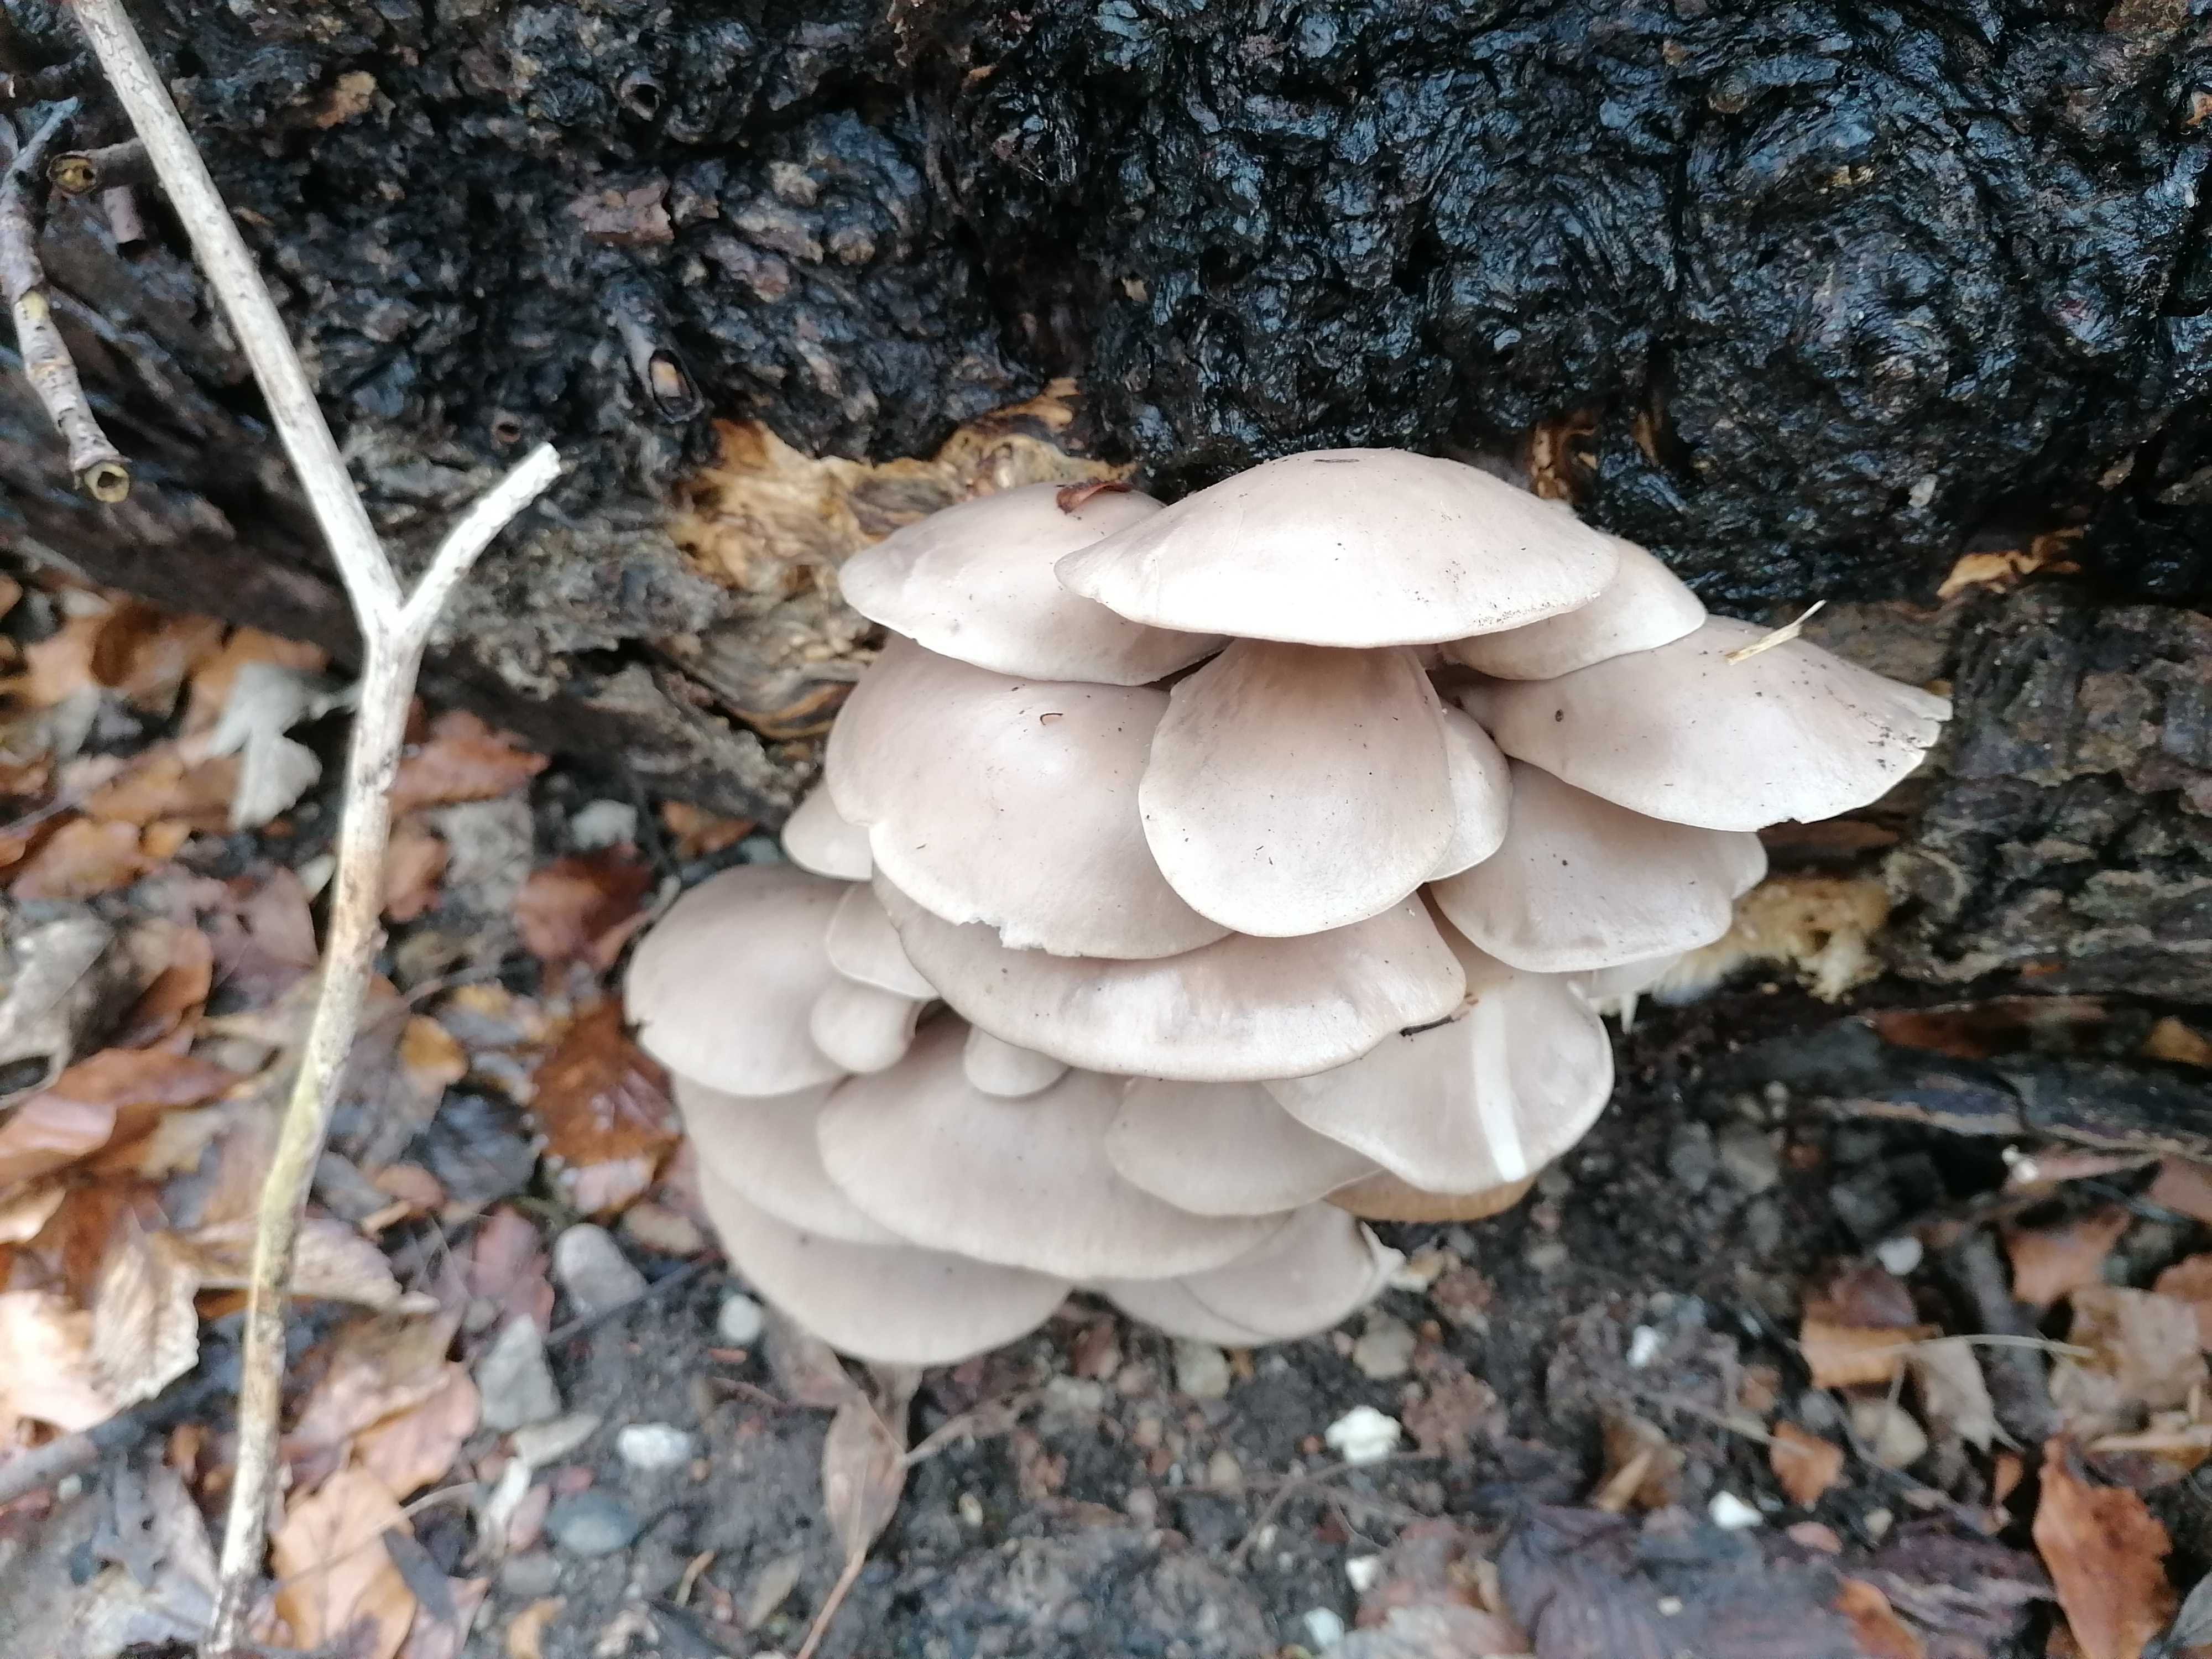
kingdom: Fungi
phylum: Basidiomycota
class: Agaricomycetes
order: Agaricales
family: Pleurotaceae
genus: Pleurotus
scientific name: Pleurotus ostreatus
